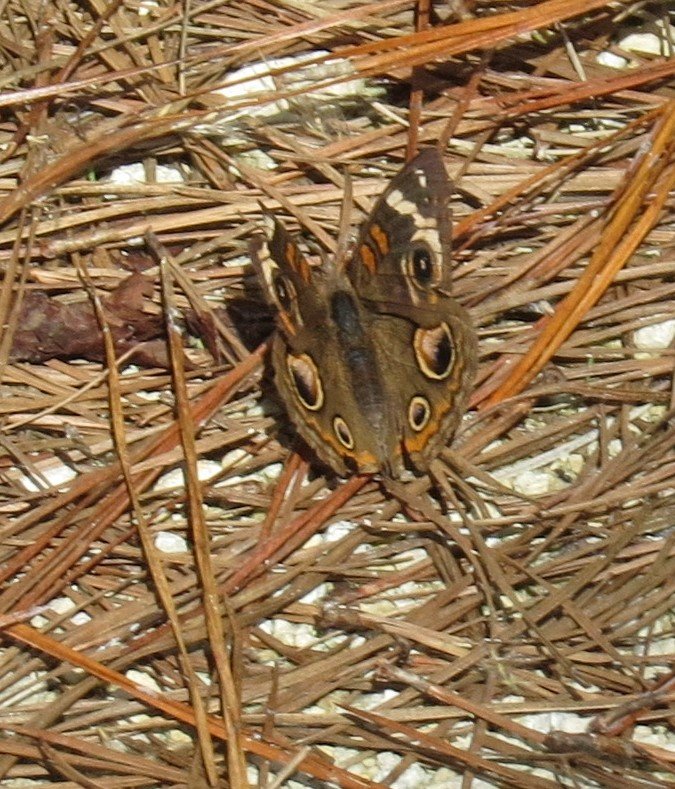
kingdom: Animalia
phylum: Arthropoda
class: Insecta
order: Lepidoptera
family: Nymphalidae
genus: Junonia
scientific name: Junonia coenia
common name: Common Buckeye
